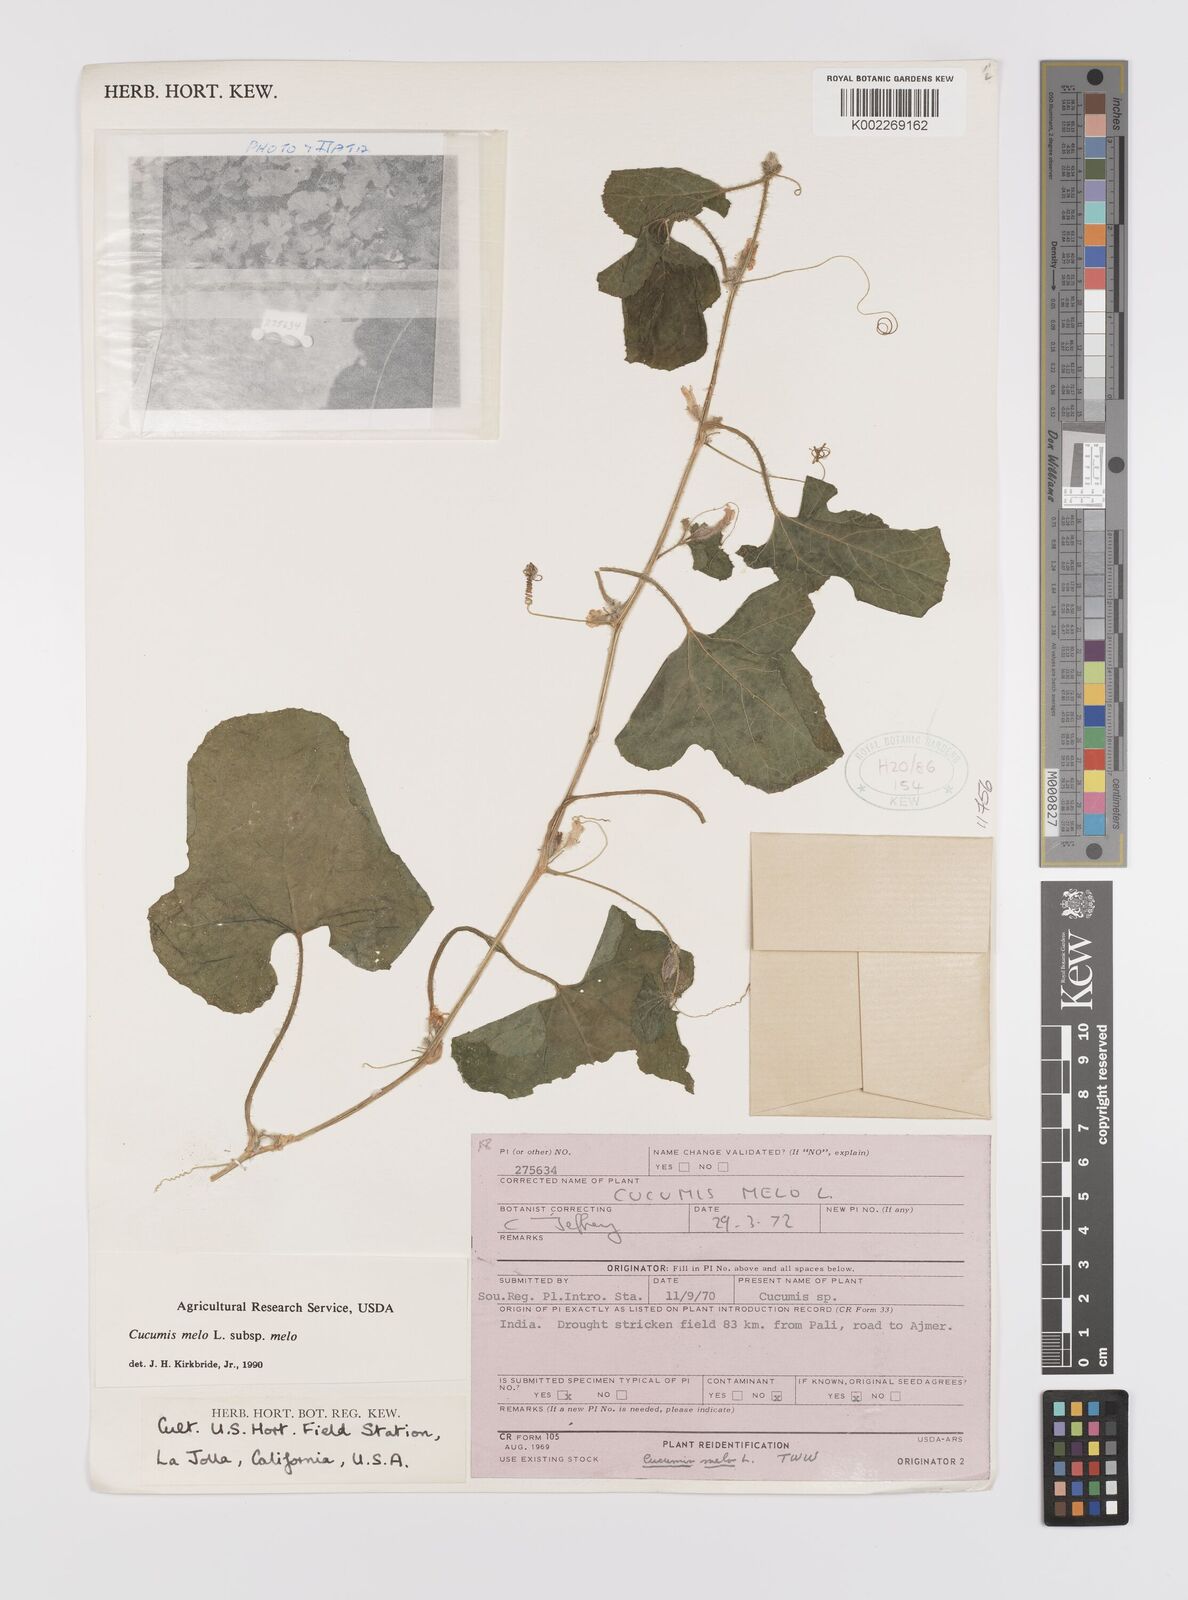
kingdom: Plantae
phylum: Tracheophyta
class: Magnoliopsida
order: Cucurbitales
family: Cucurbitaceae
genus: Cucumis
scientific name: Cucumis melo
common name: Melon
